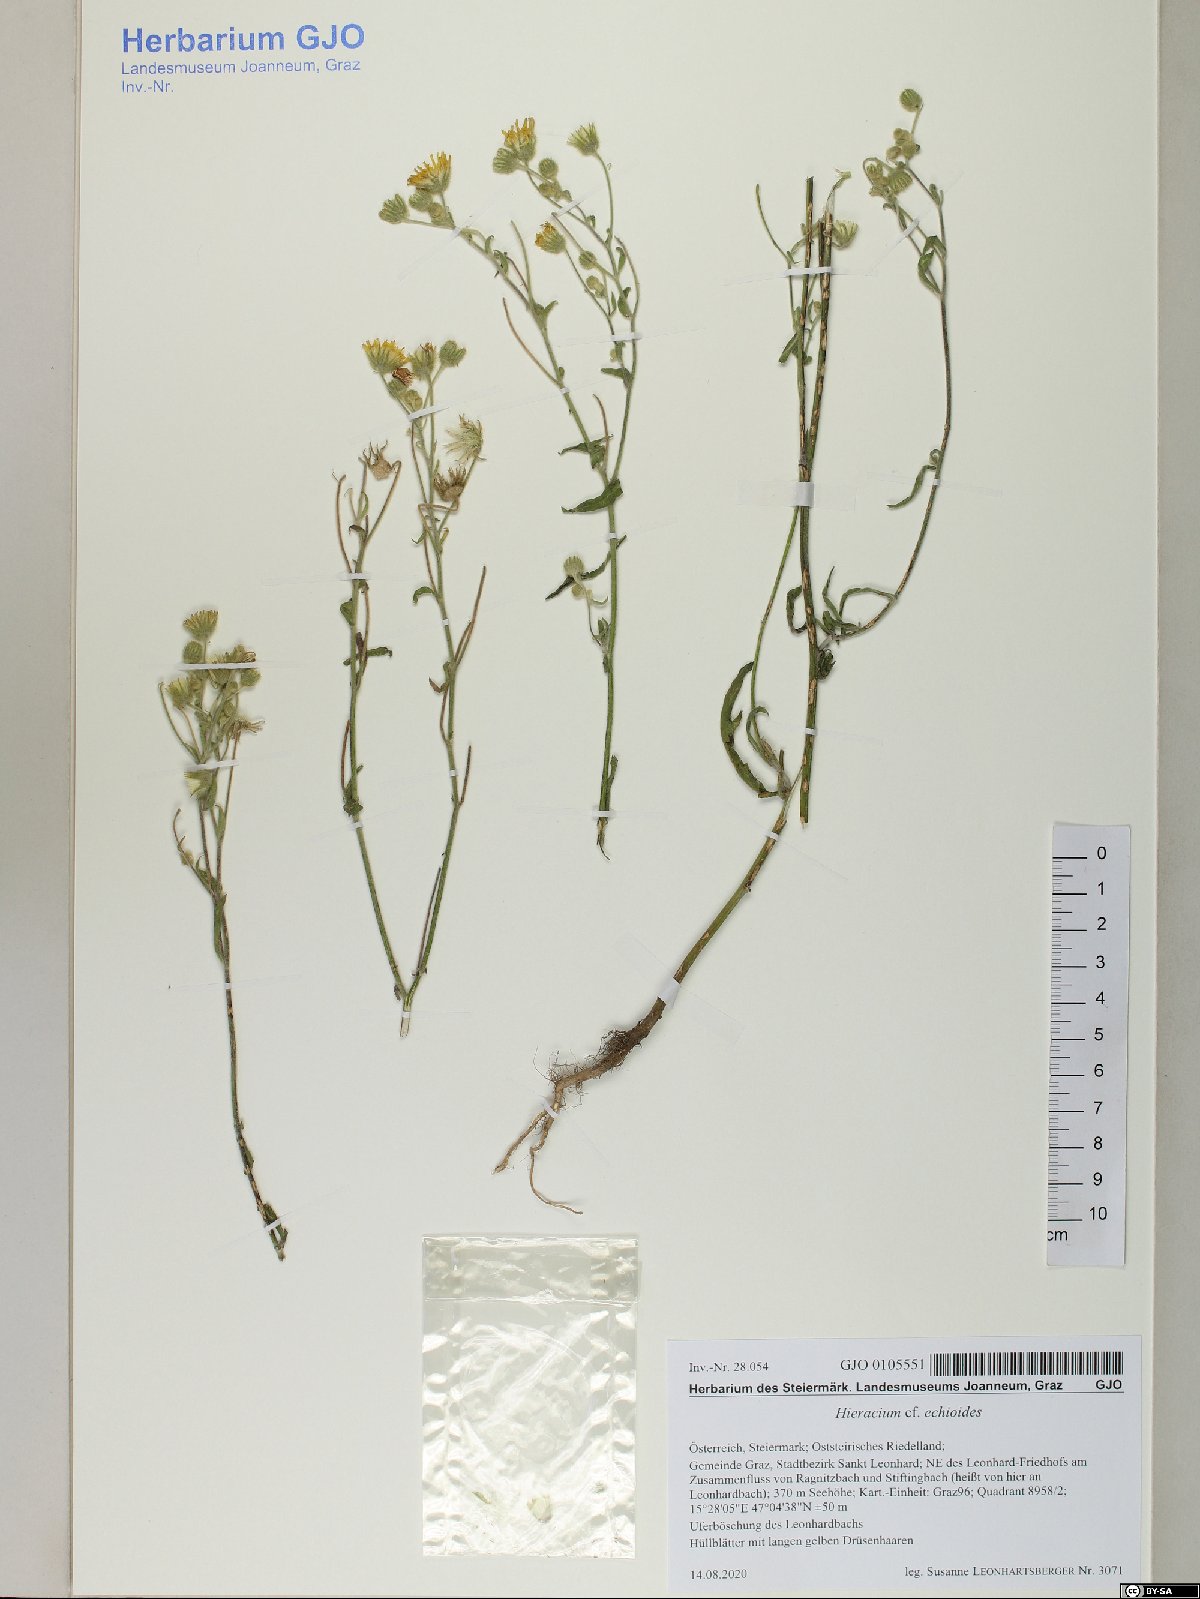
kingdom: Plantae
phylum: Tracheophyta
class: Magnoliopsida
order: Asterales
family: Asteraceae
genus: Pilosella
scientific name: Pilosella echioides
